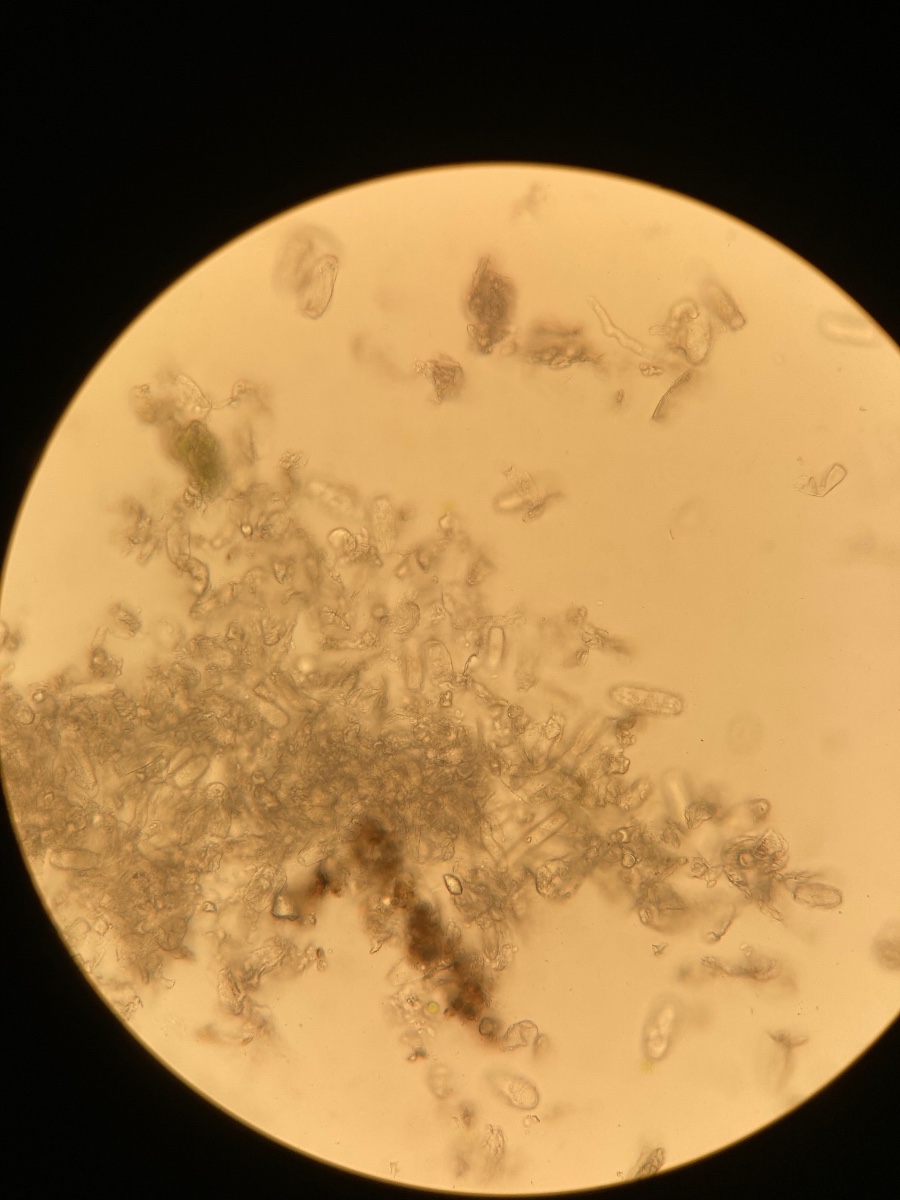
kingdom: Fungi
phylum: Ascomycota
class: Leotiomycetes
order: Helotiales
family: Erysiphaceae
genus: Erysiphe
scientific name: Erysiphe euonymi
